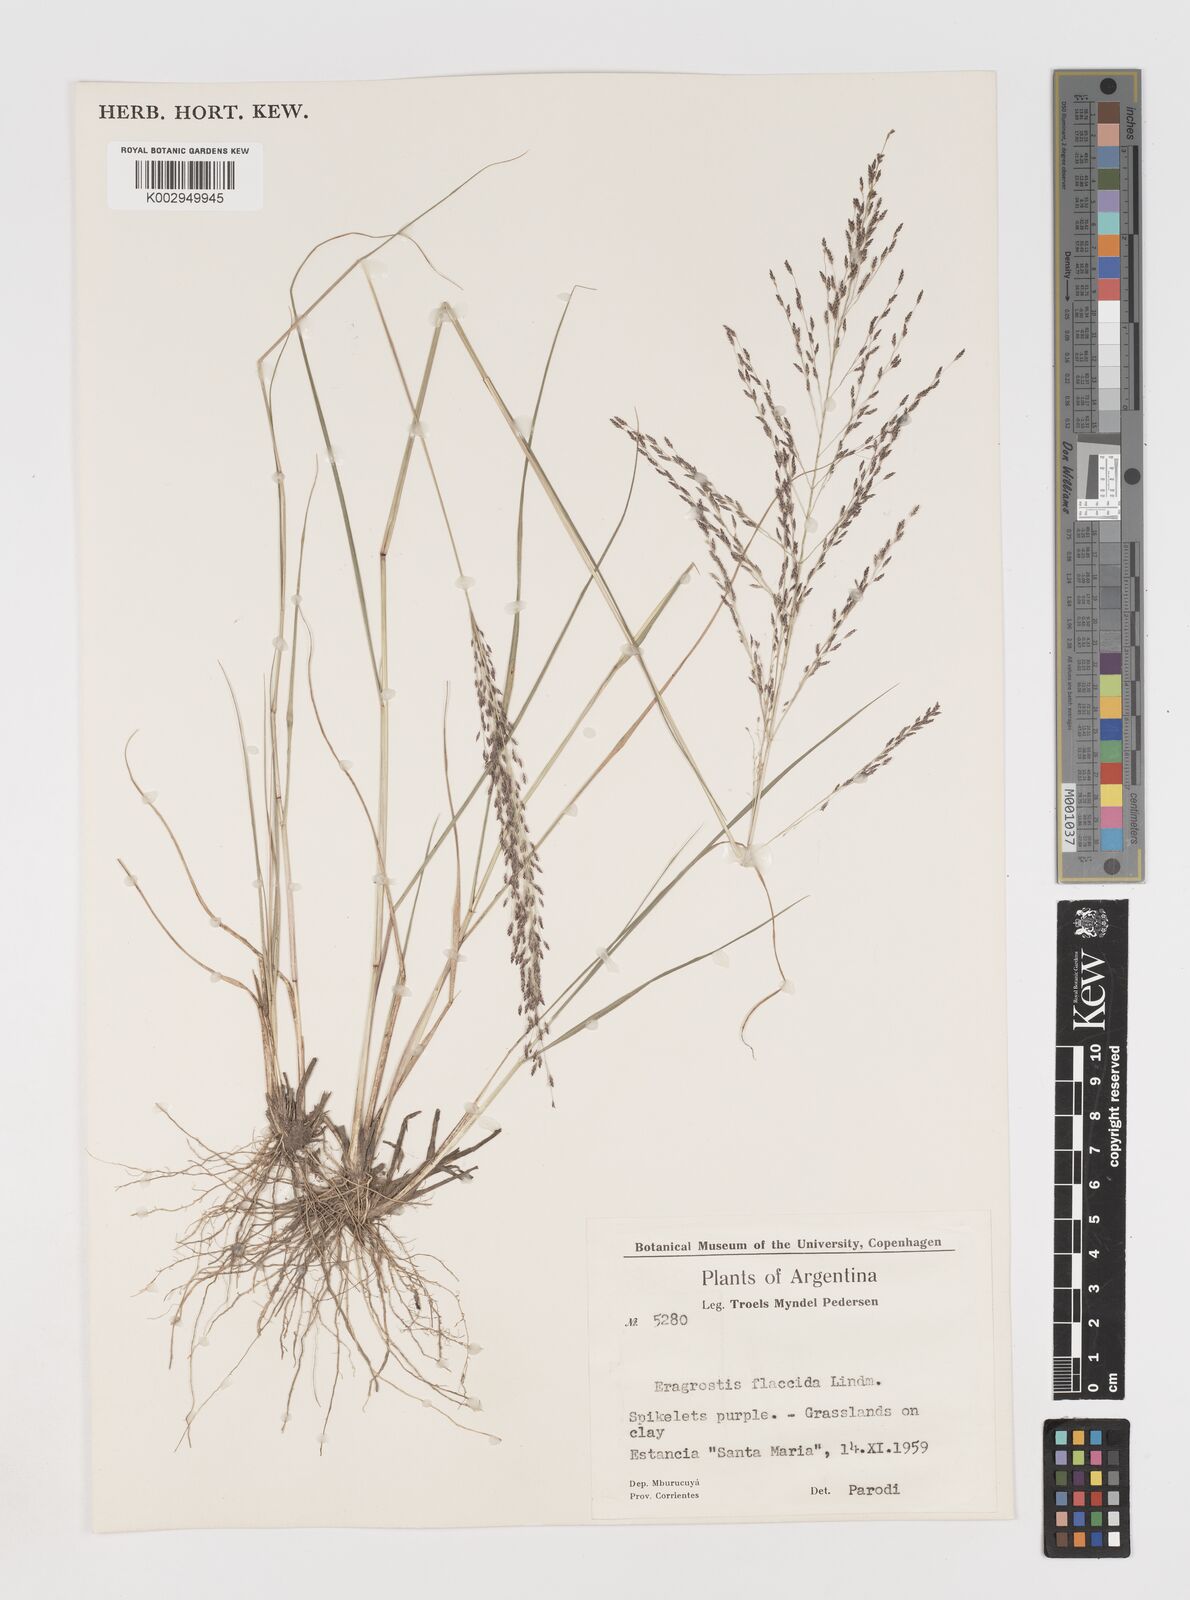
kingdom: Plantae
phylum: Tracheophyta
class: Liliopsida
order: Poales
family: Poaceae
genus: Eragrostis
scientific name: Eragrostis lugens
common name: Mourning love grass
